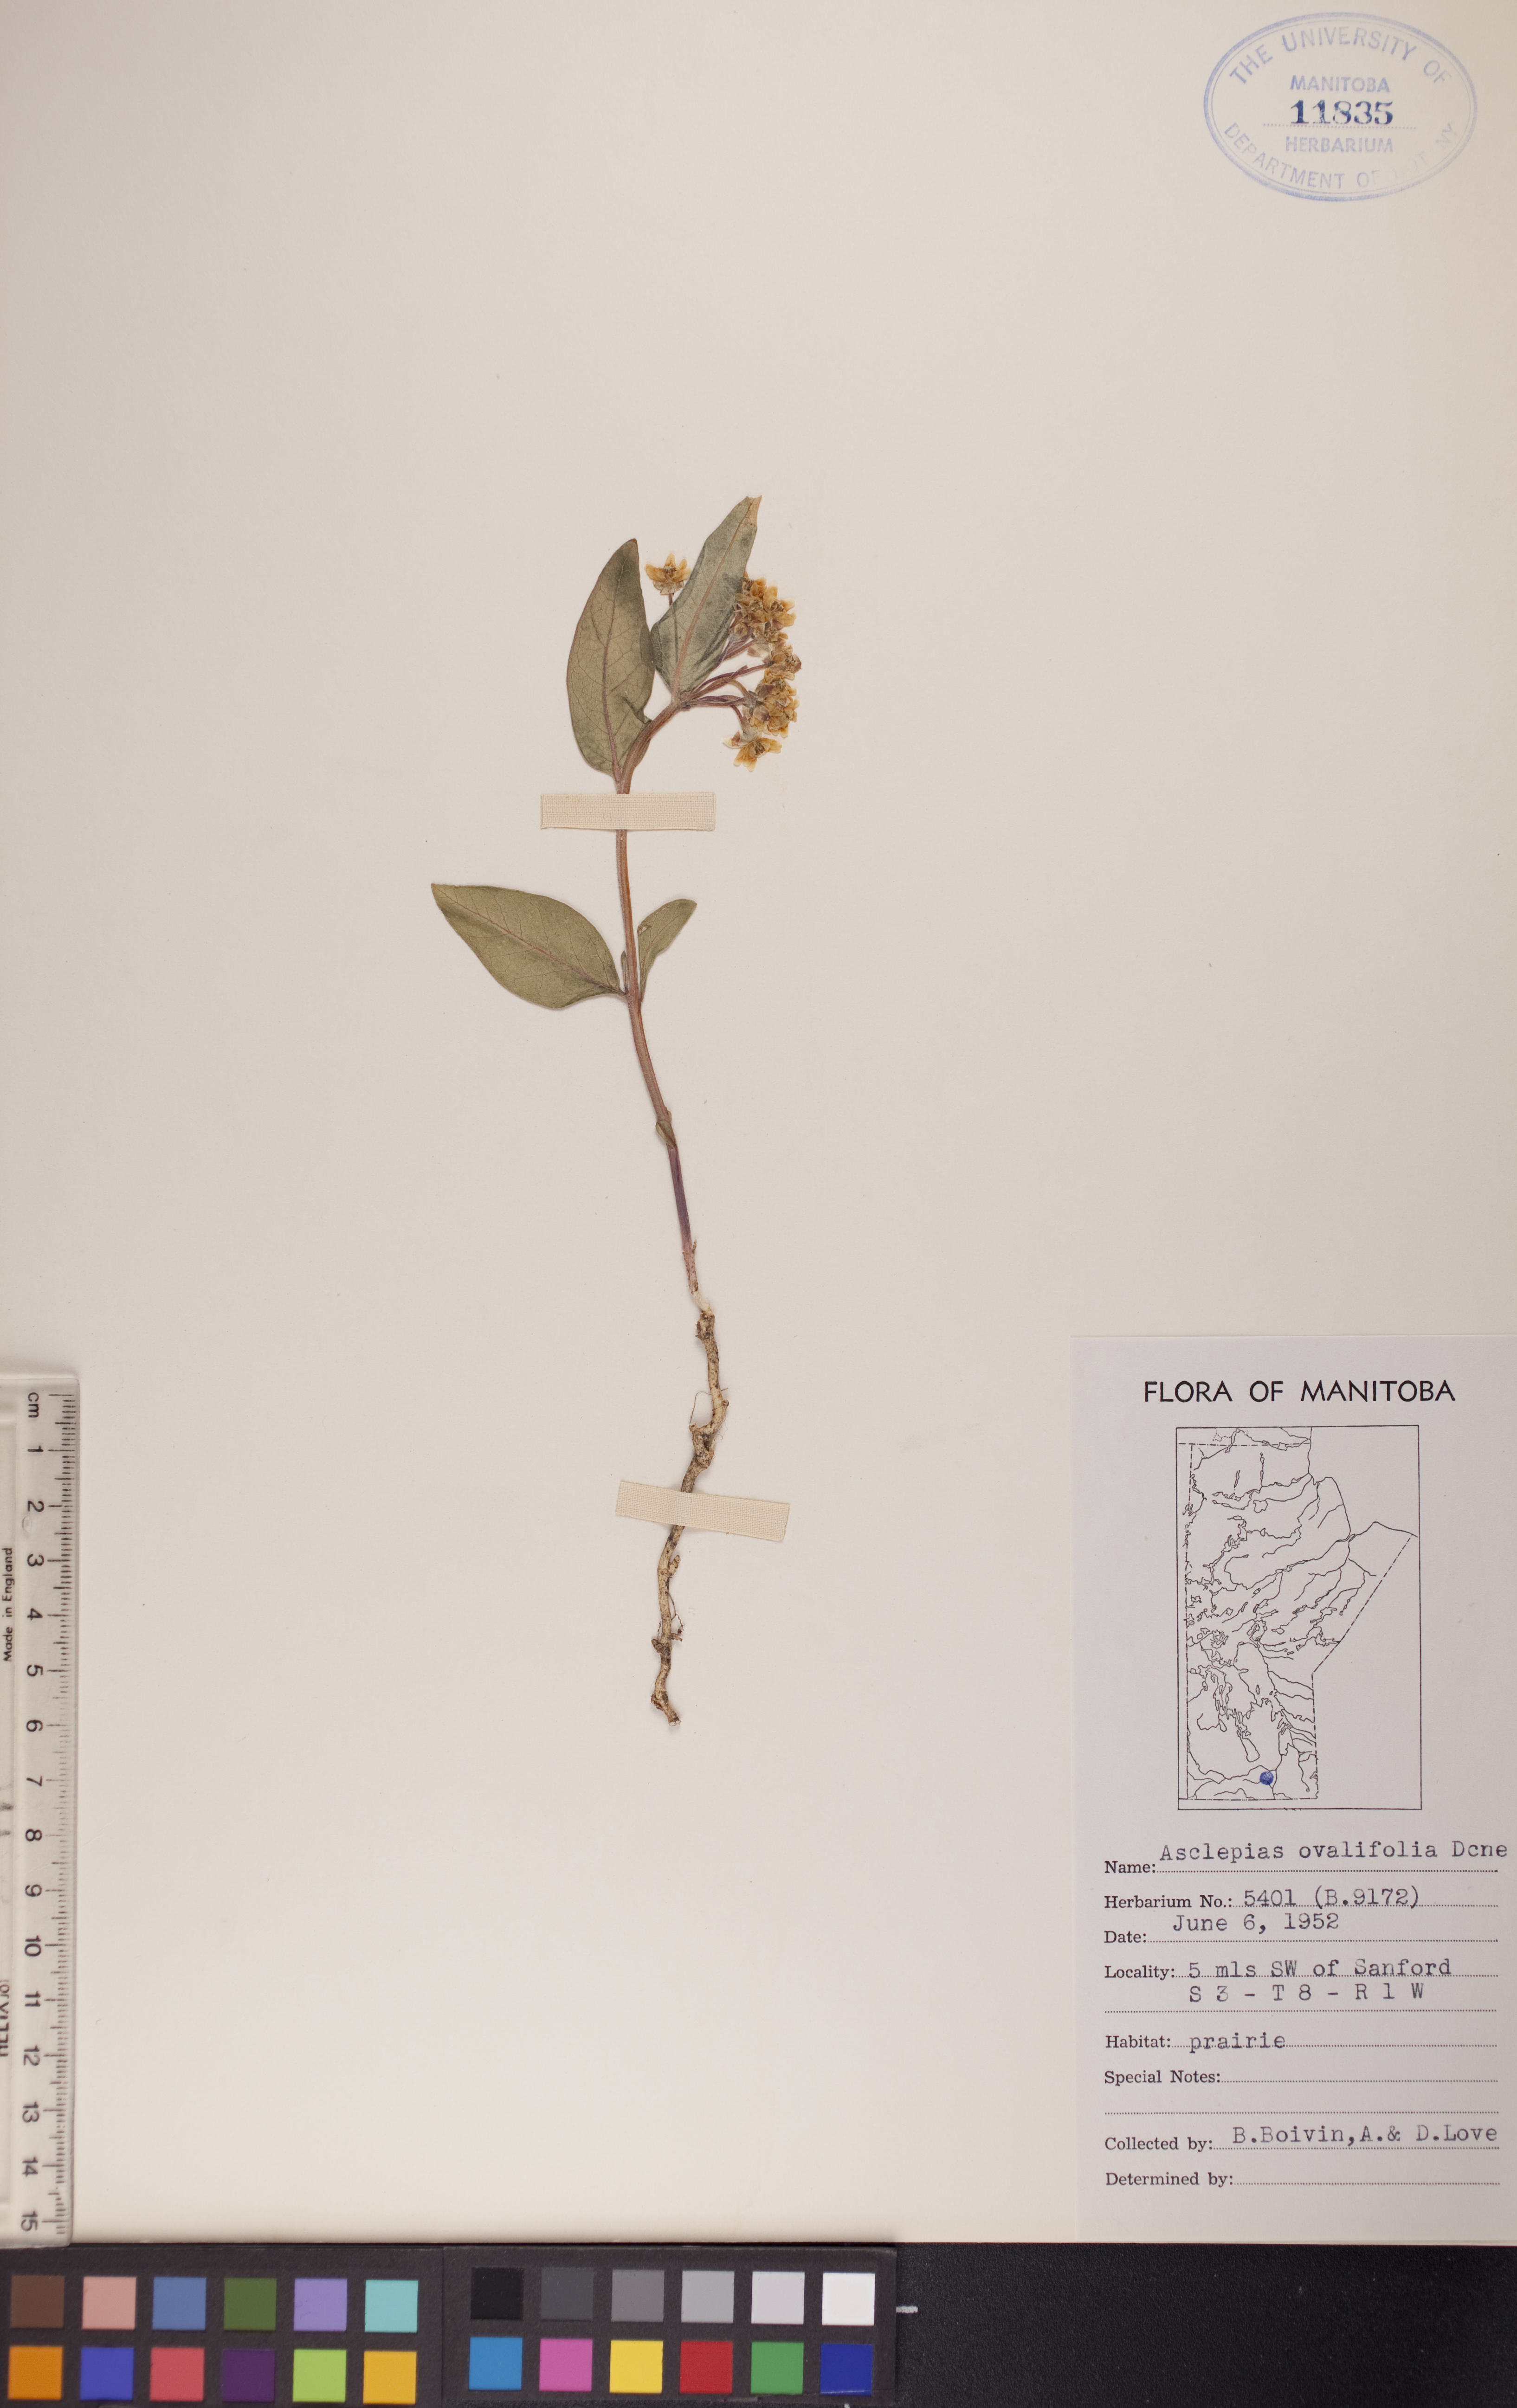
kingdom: Plantae
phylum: Tracheophyta
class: Magnoliopsida
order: Gentianales
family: Apocynaceae
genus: Asclepias
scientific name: Asclepias ovalifolia
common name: Dwarf milkweed
